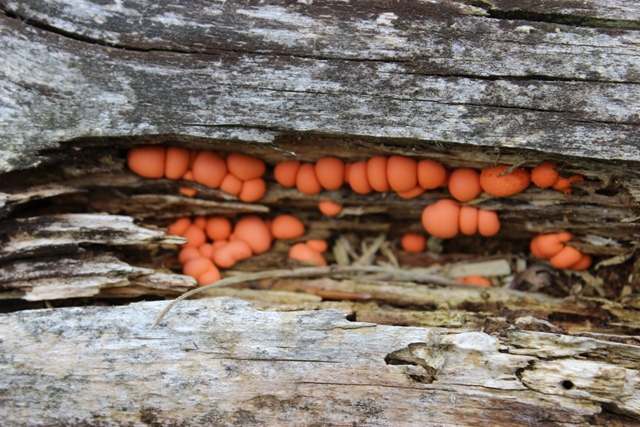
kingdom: Protozoa
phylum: Mycetozoa
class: Myxomycetes
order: Cribrariales
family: Tubiferaceae
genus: Lycogala
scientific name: Lycogala epidendrum
